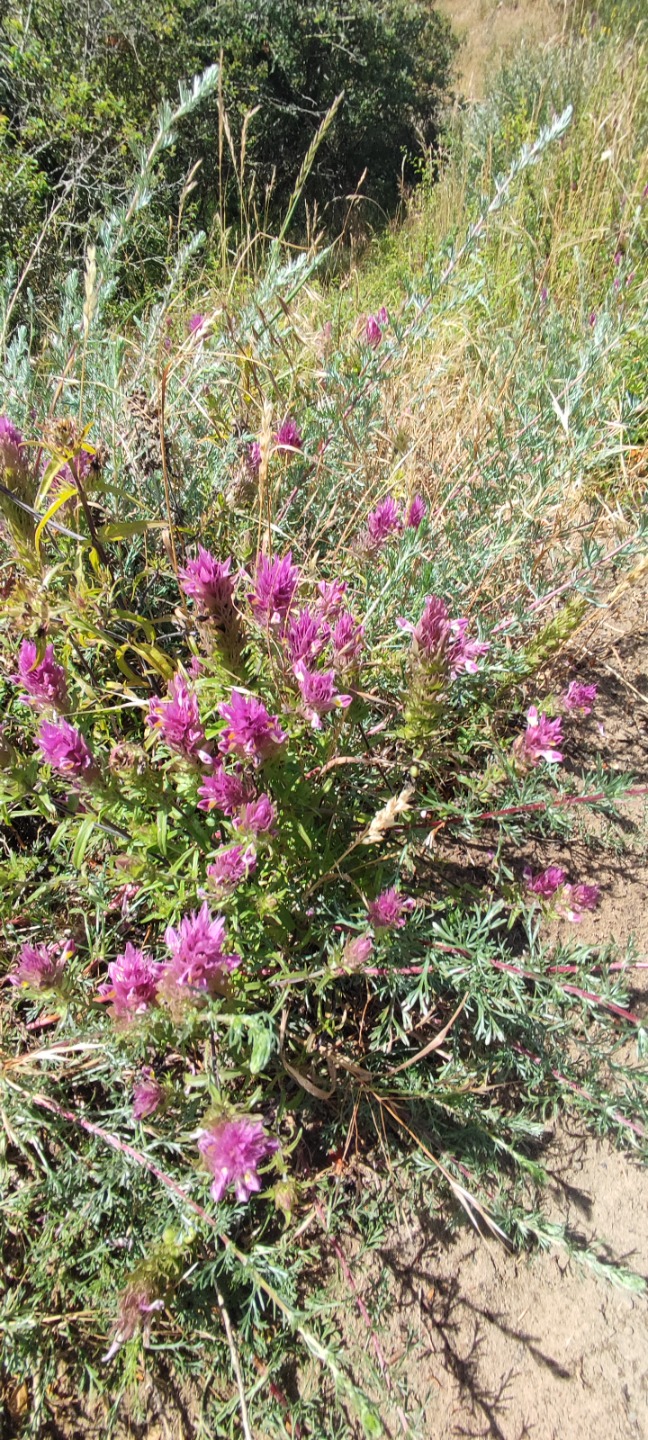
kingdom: Plantae
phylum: Tracheophyta
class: Magnoliopsida
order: Lamiales
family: Orobanchaceae
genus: Melampyrum
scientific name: Melampyrum arvense
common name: Ager-kohvede
